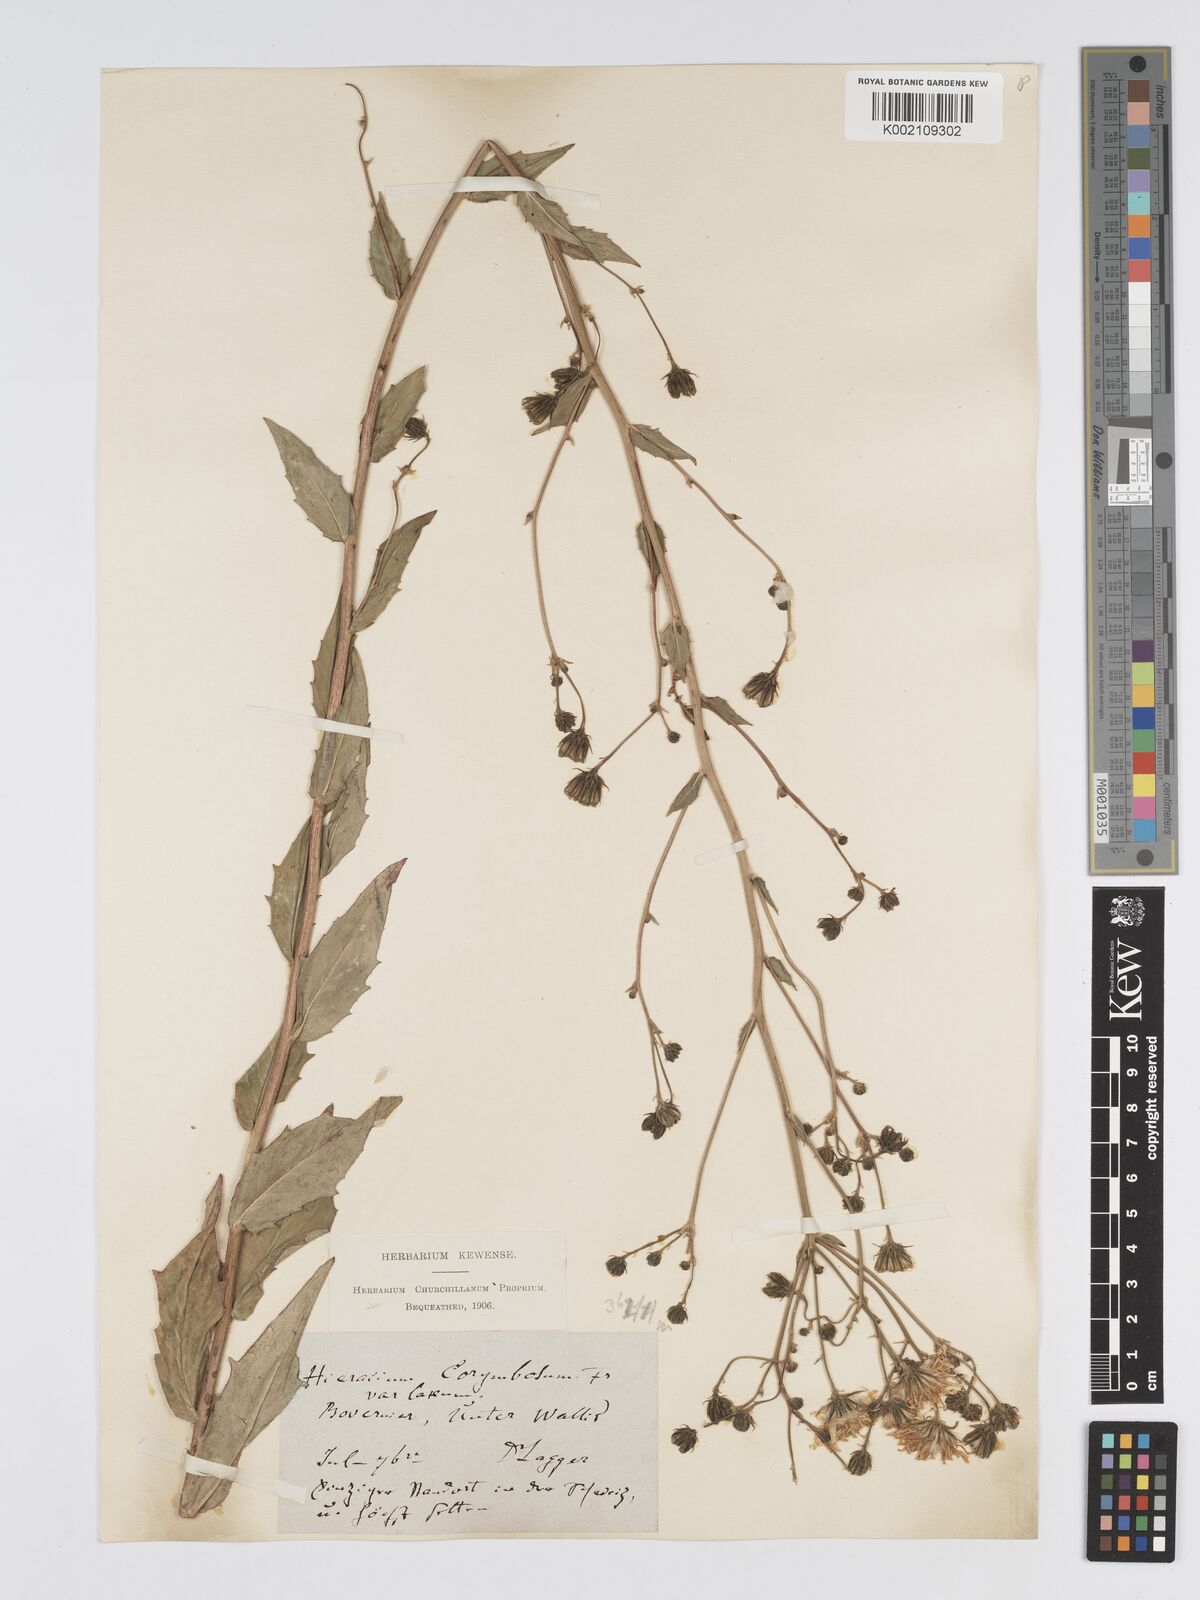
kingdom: Plantae
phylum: Tracheophyta
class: Magnoliopsida
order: Asterales
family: Asteraceae
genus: Hieracium
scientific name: Hieracium pseudocorymbosum
